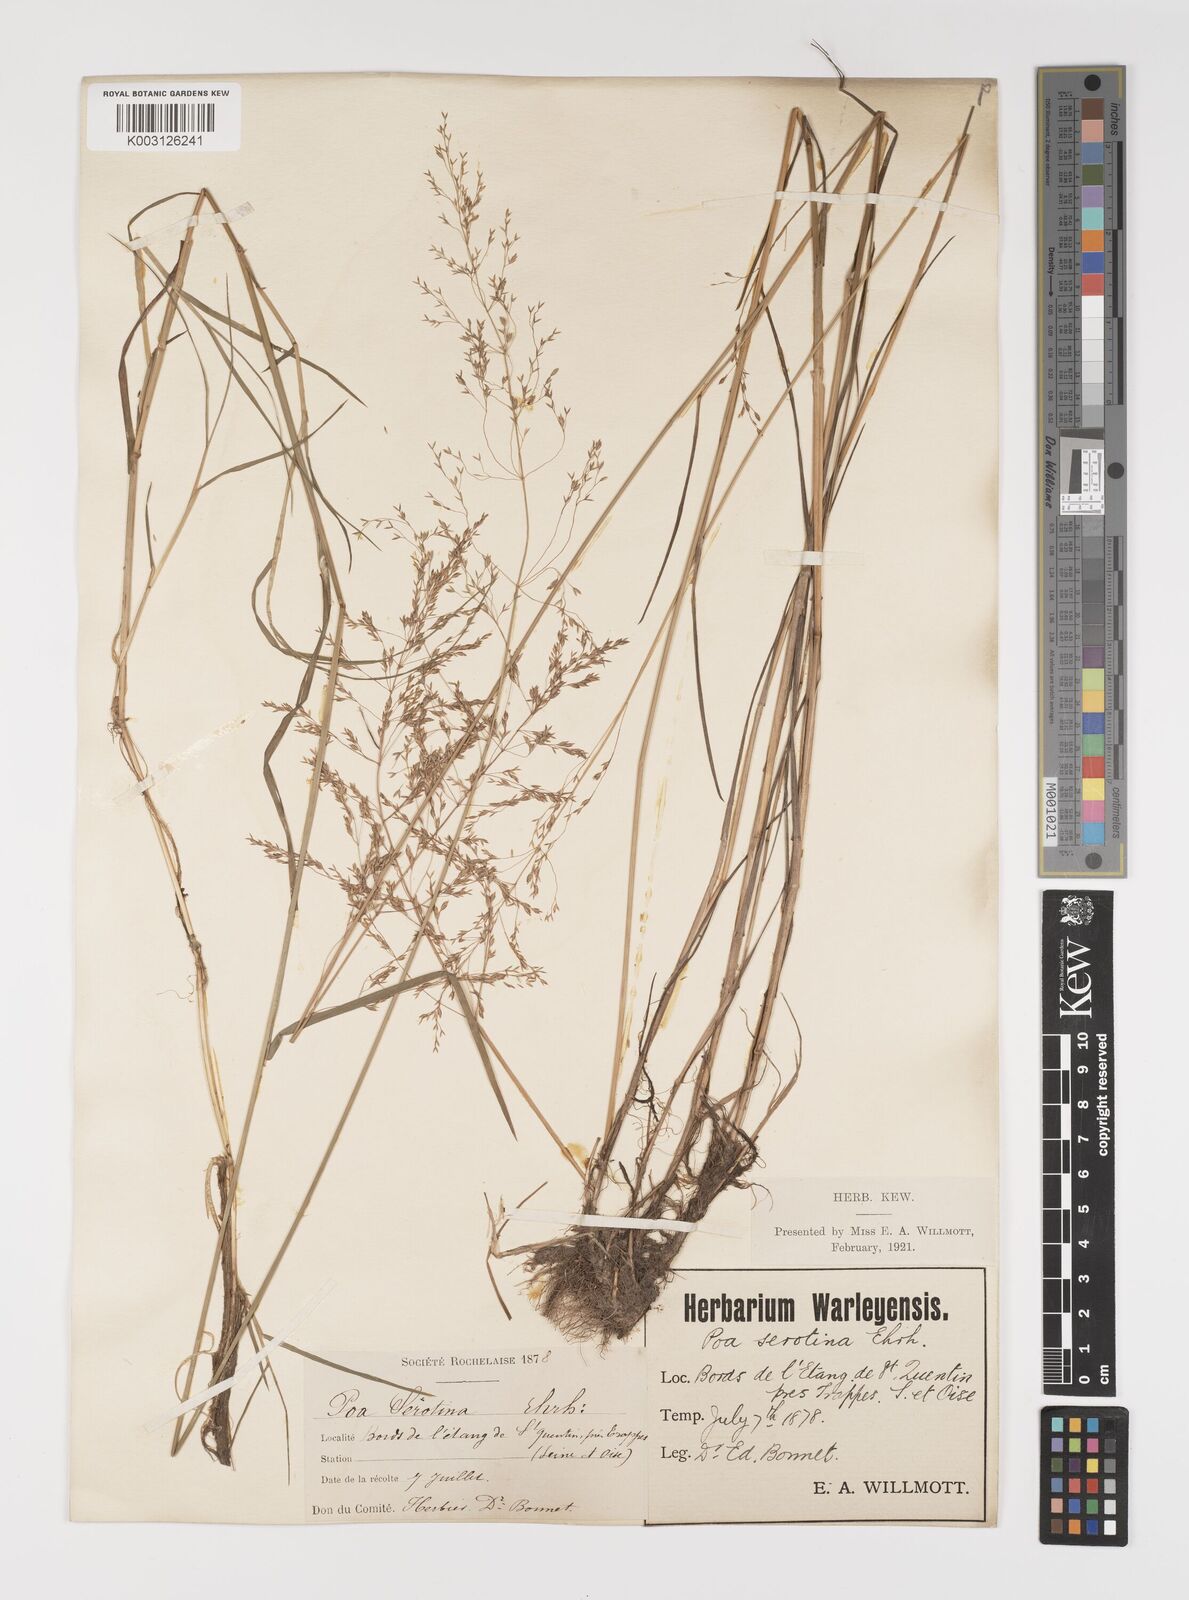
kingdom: Plantae
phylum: Tracheophyta
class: Liliopsida
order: Poales
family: Poaceae
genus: Poa
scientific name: Poa palustris
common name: Swamp meadow-grass
